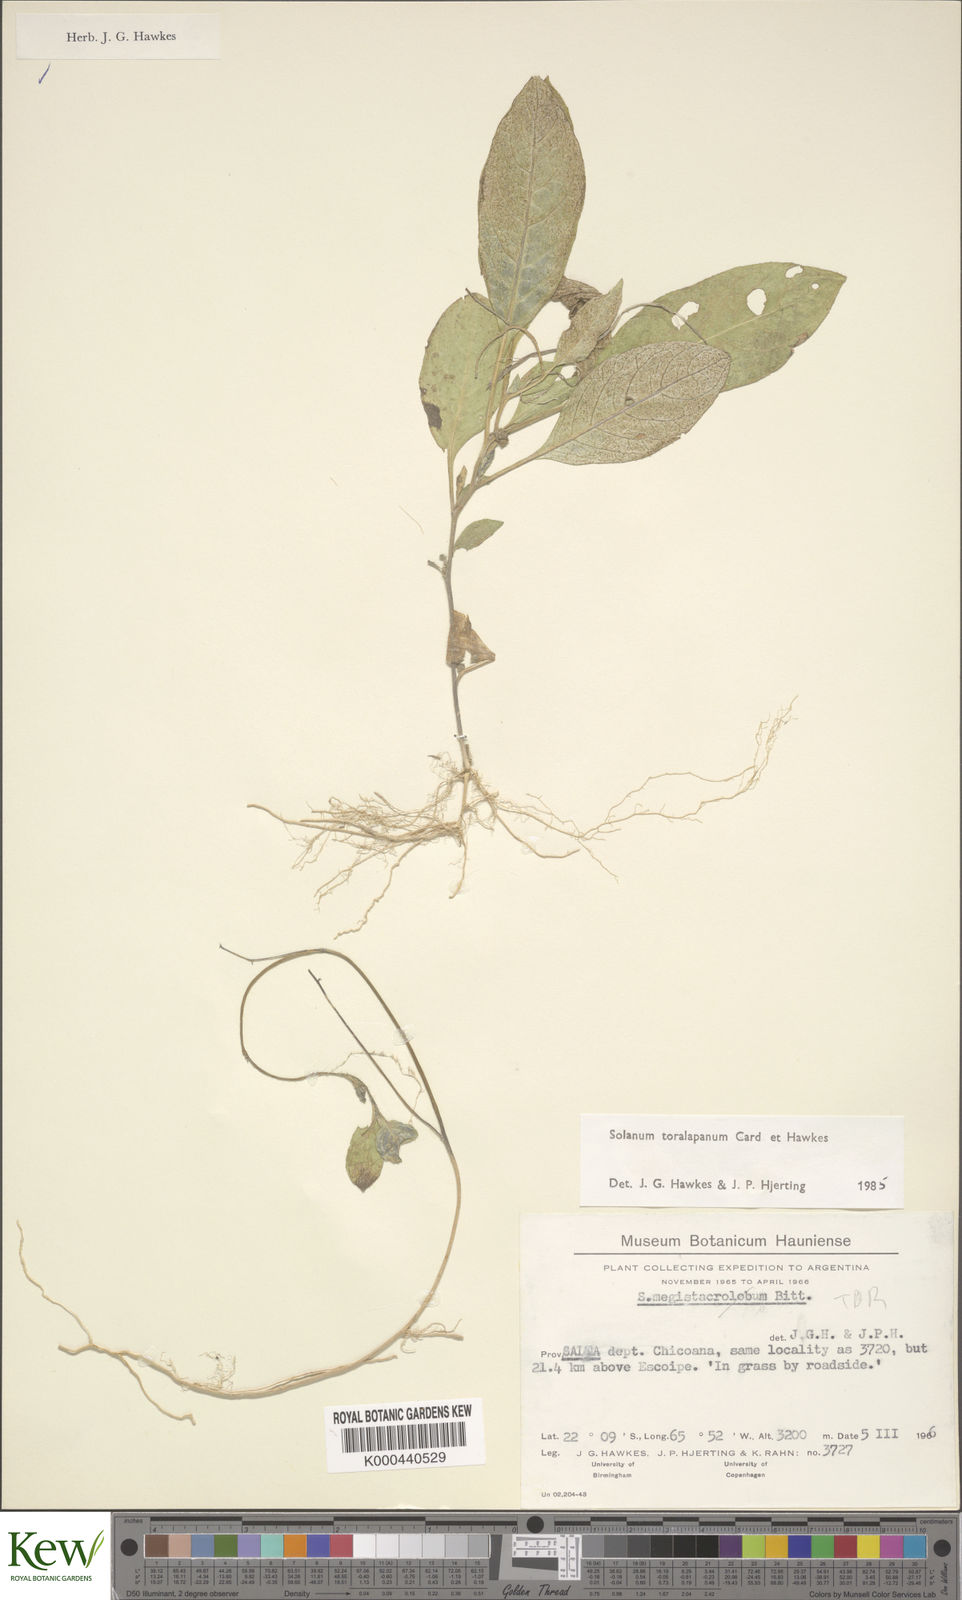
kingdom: Plantae
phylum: Tracheophyta
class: Magnoliopsida
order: Solanales
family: Solanaceae
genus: Solanum
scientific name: Solanum
